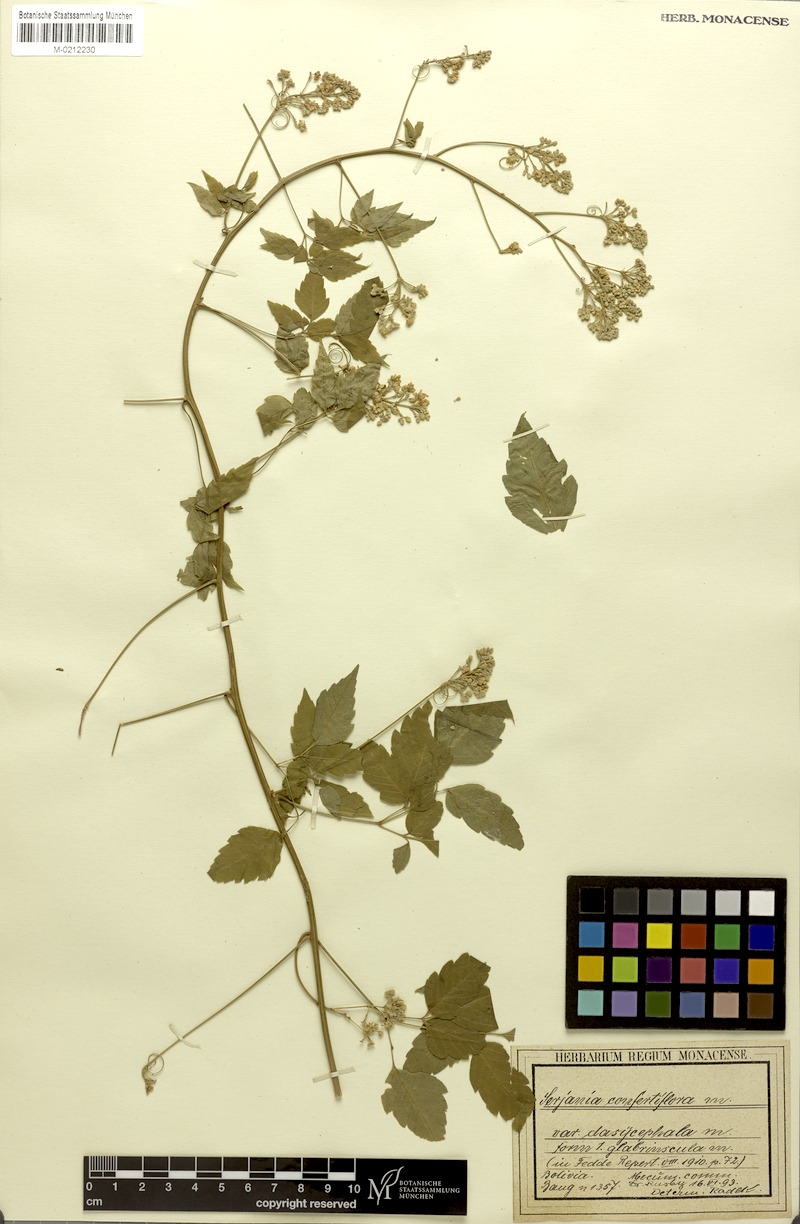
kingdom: Plantae
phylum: Tracheophyta
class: Magnoliopsida
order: Sapindales
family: Sapindaceae
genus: Serjania
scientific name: Serjania confertiflora
